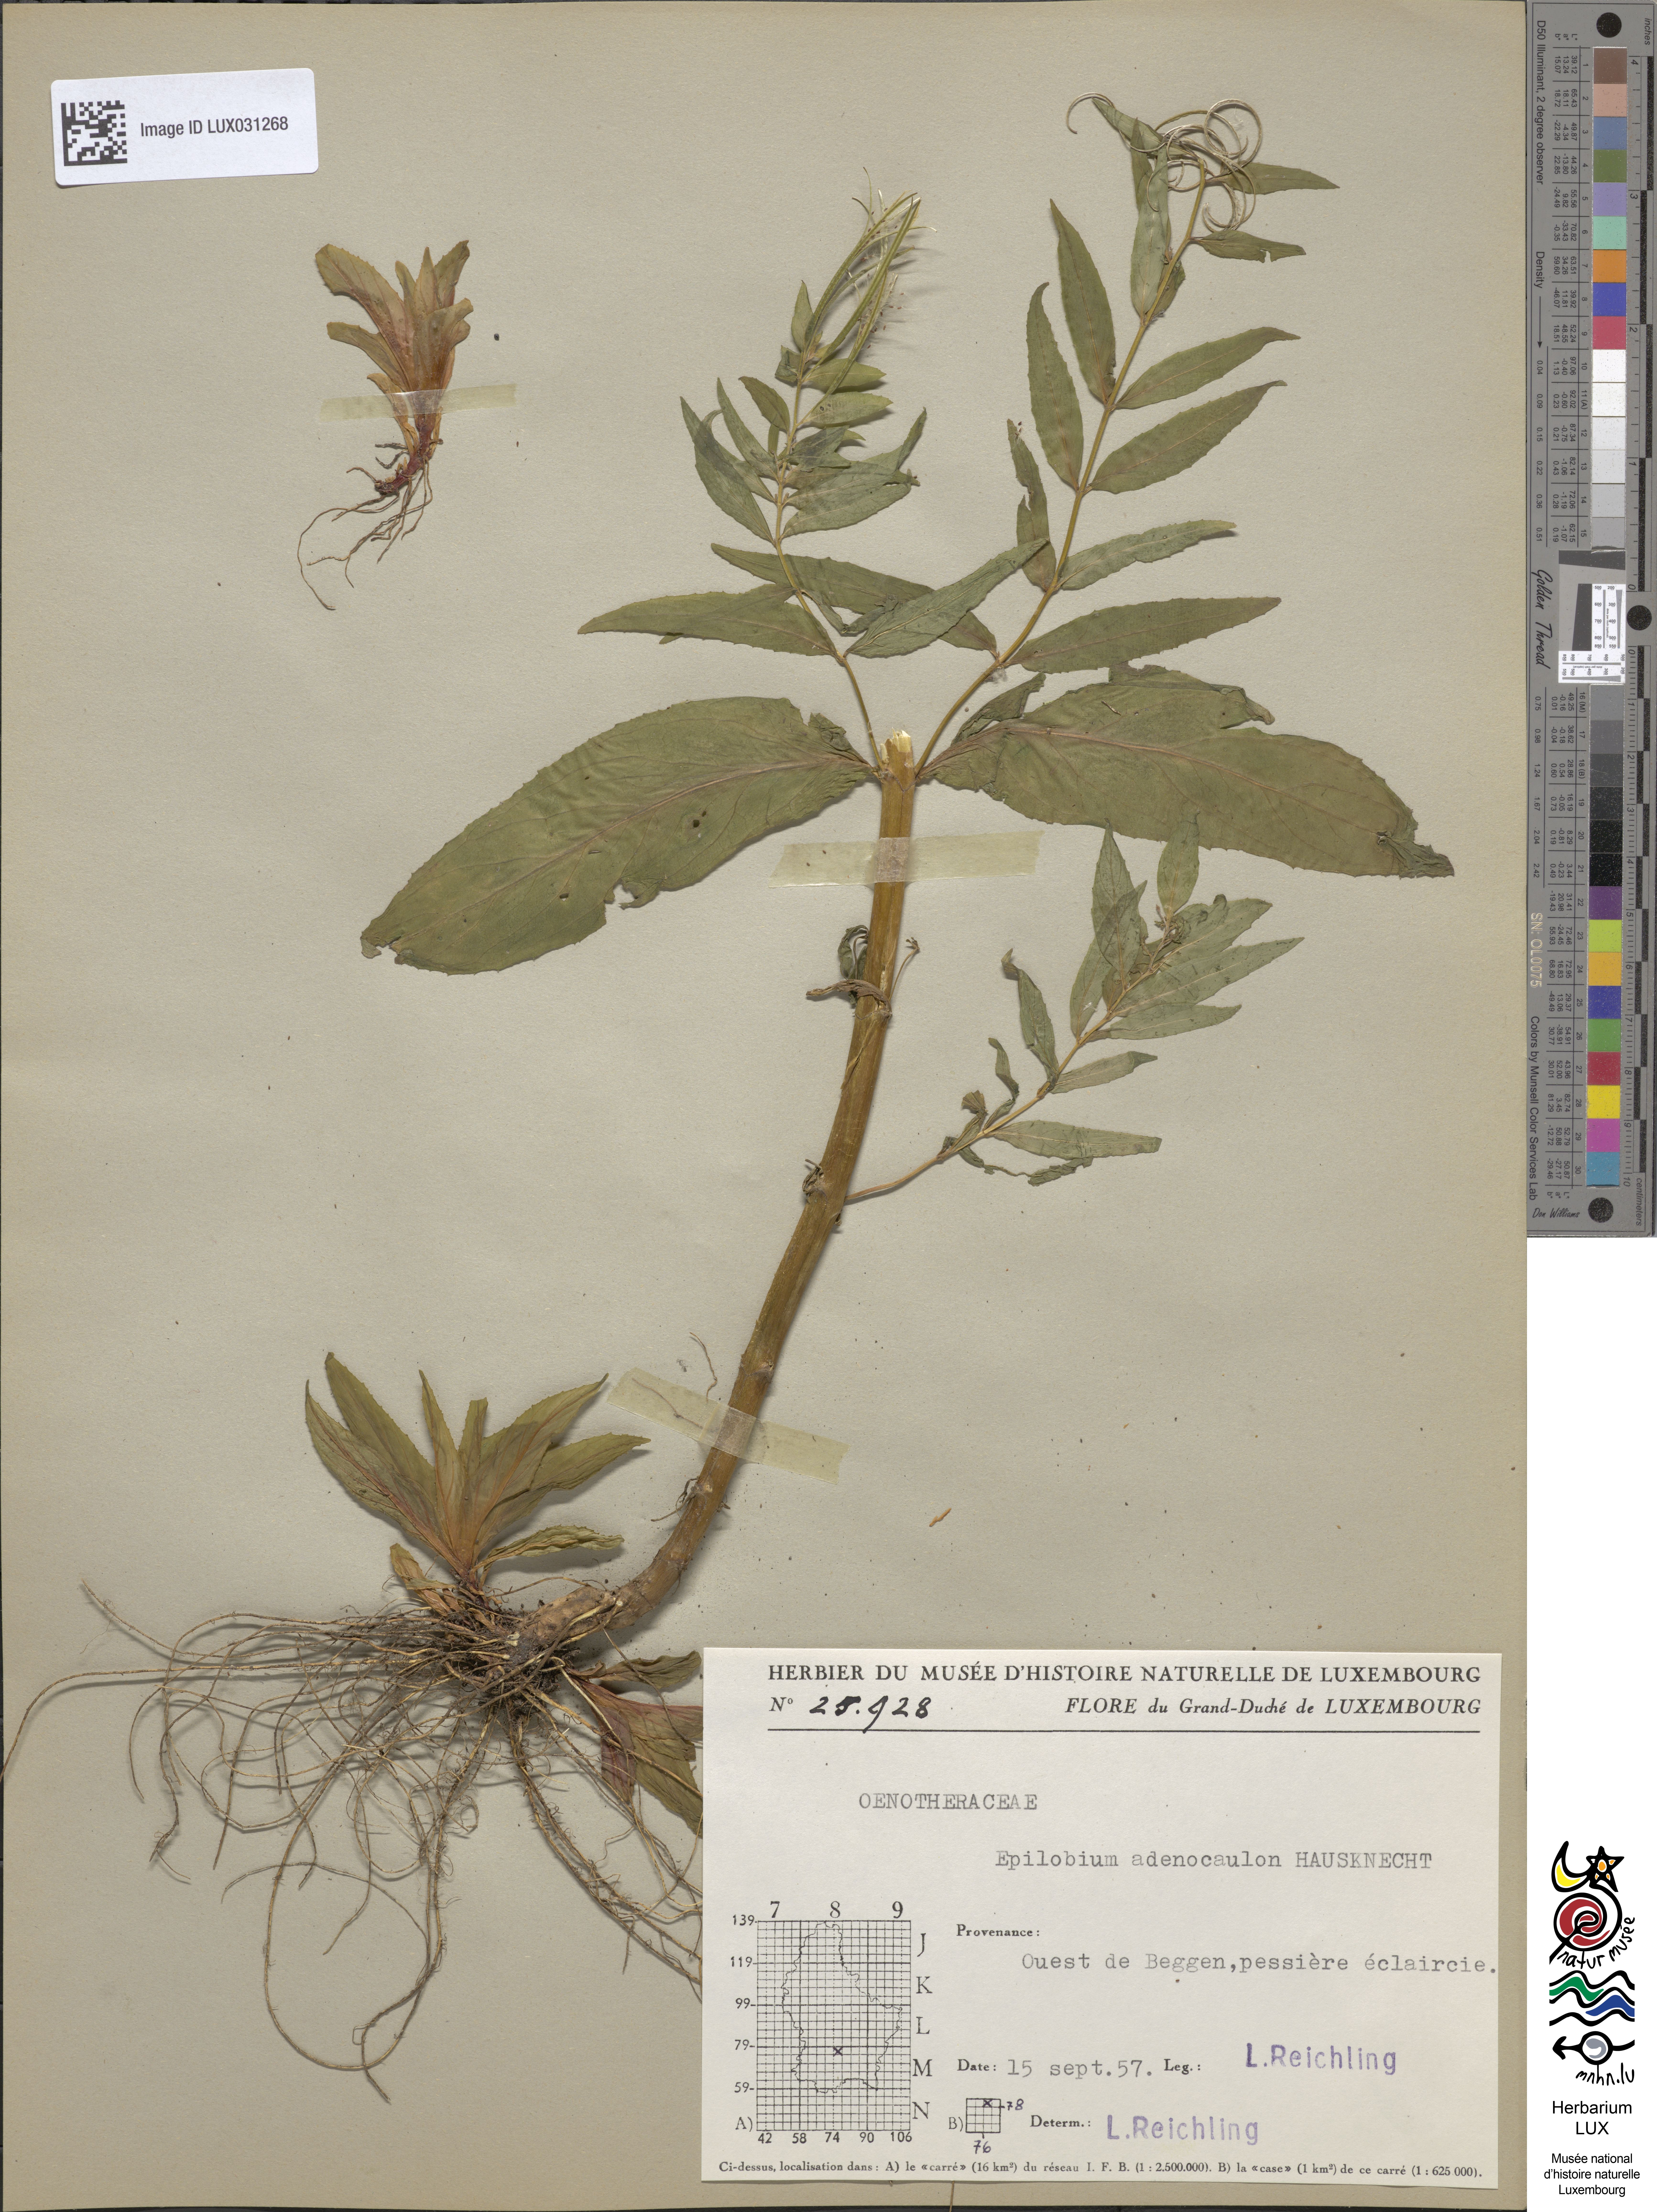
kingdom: Plantae
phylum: Tracheophyta
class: Magnoliopsida
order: Myrtales
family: Onagraceae
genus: Epilobium
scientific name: Epilobium ciliatum
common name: American willowherb
